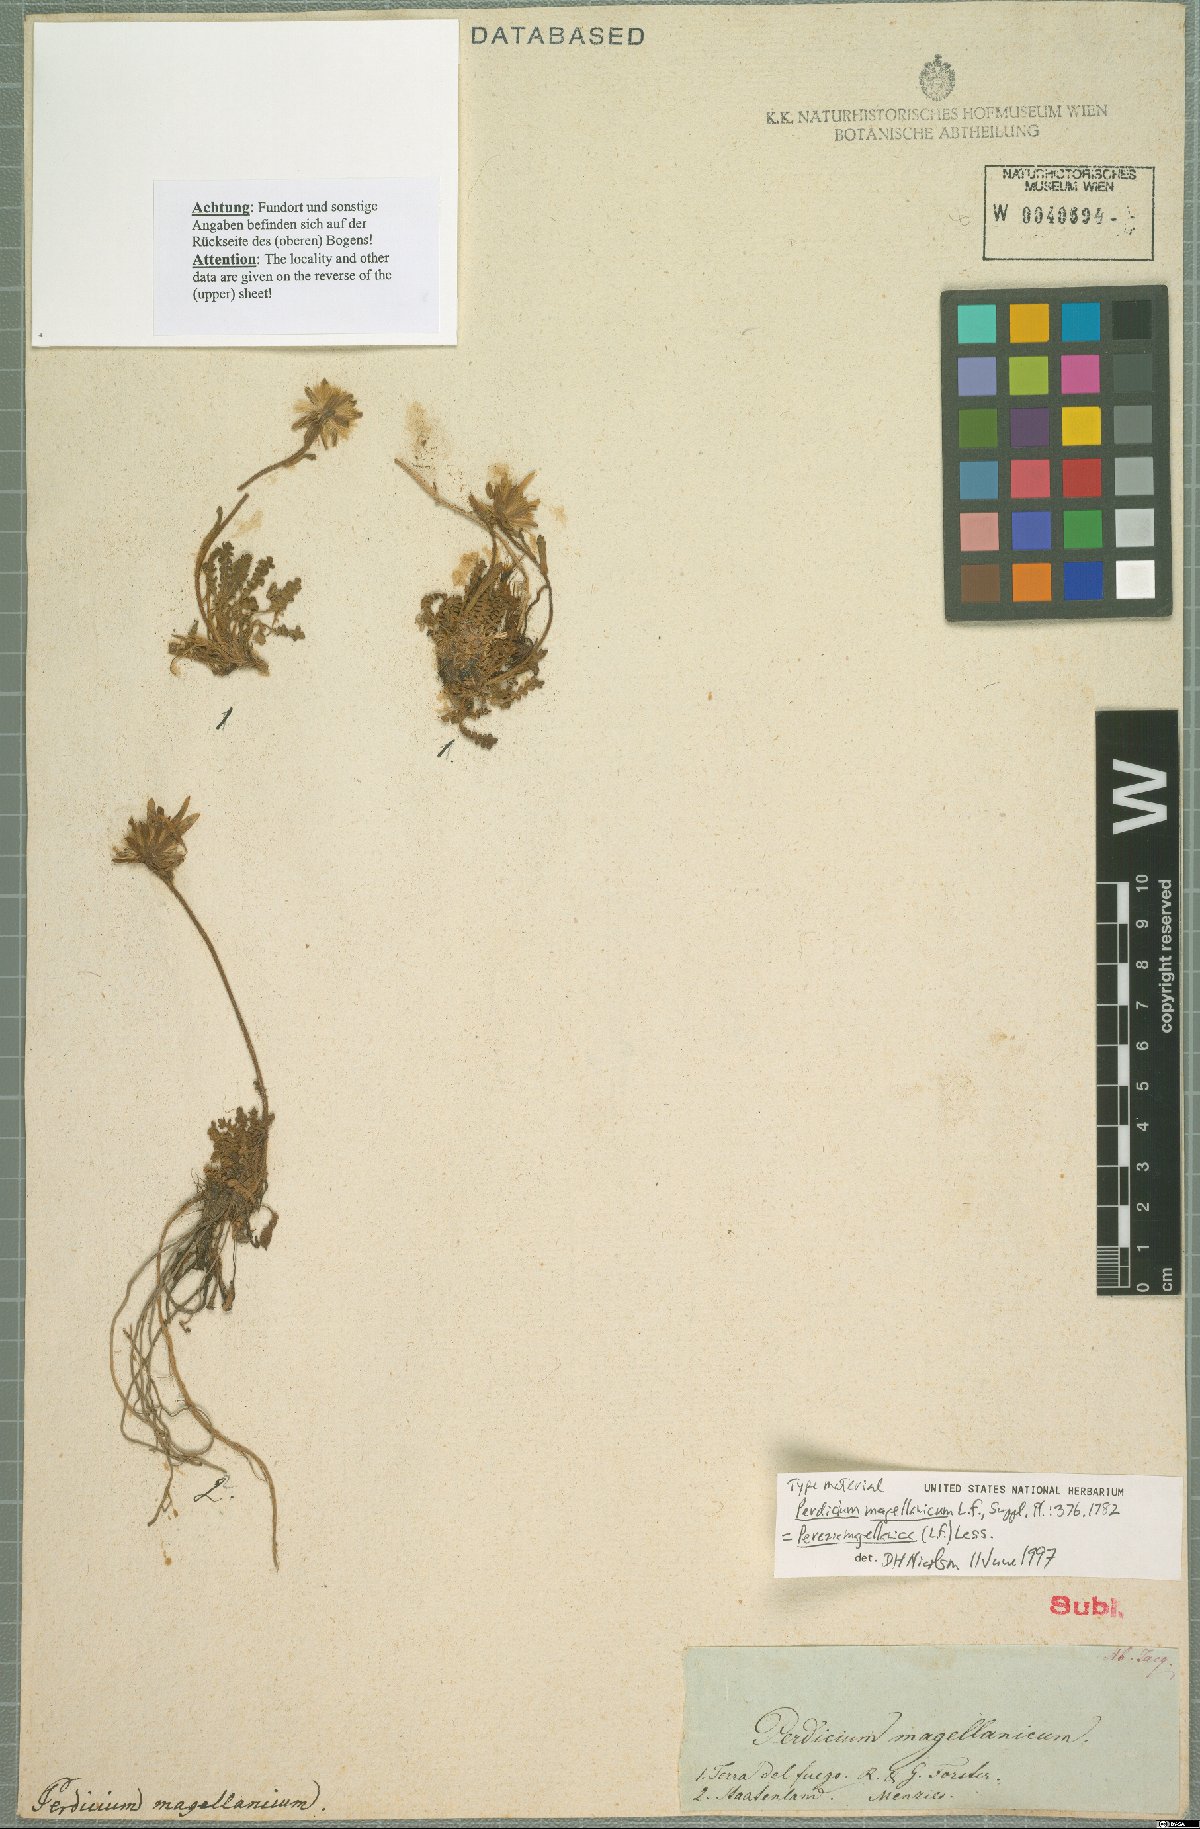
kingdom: Plantae
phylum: Tracheophyta
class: Magnoliopsida
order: Asterales
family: Asteraceae
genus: Perezia
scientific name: Perezia magellanica
